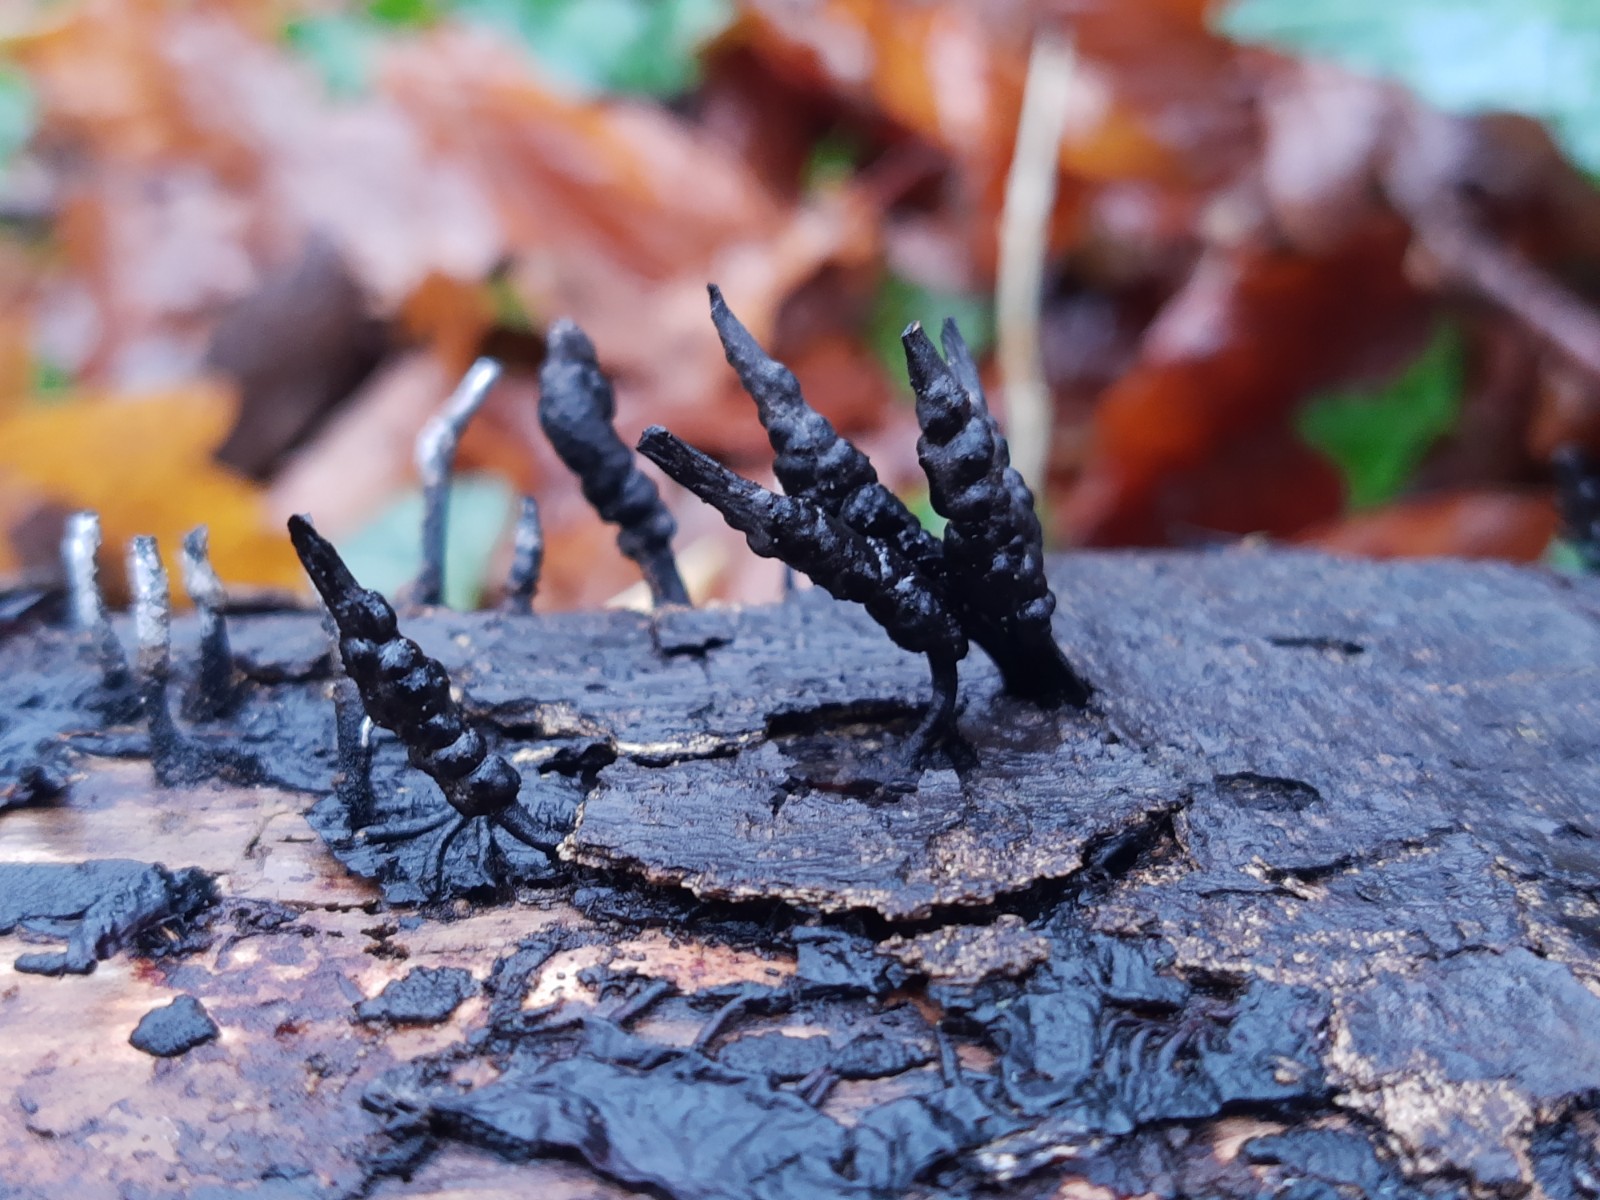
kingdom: Fungi
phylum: Ascomycota
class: Sordariomycetes
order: Xylariales
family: Xylariaceae
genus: Xylaria
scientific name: Xylaria hypoxylon
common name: grenet stødsvamp
